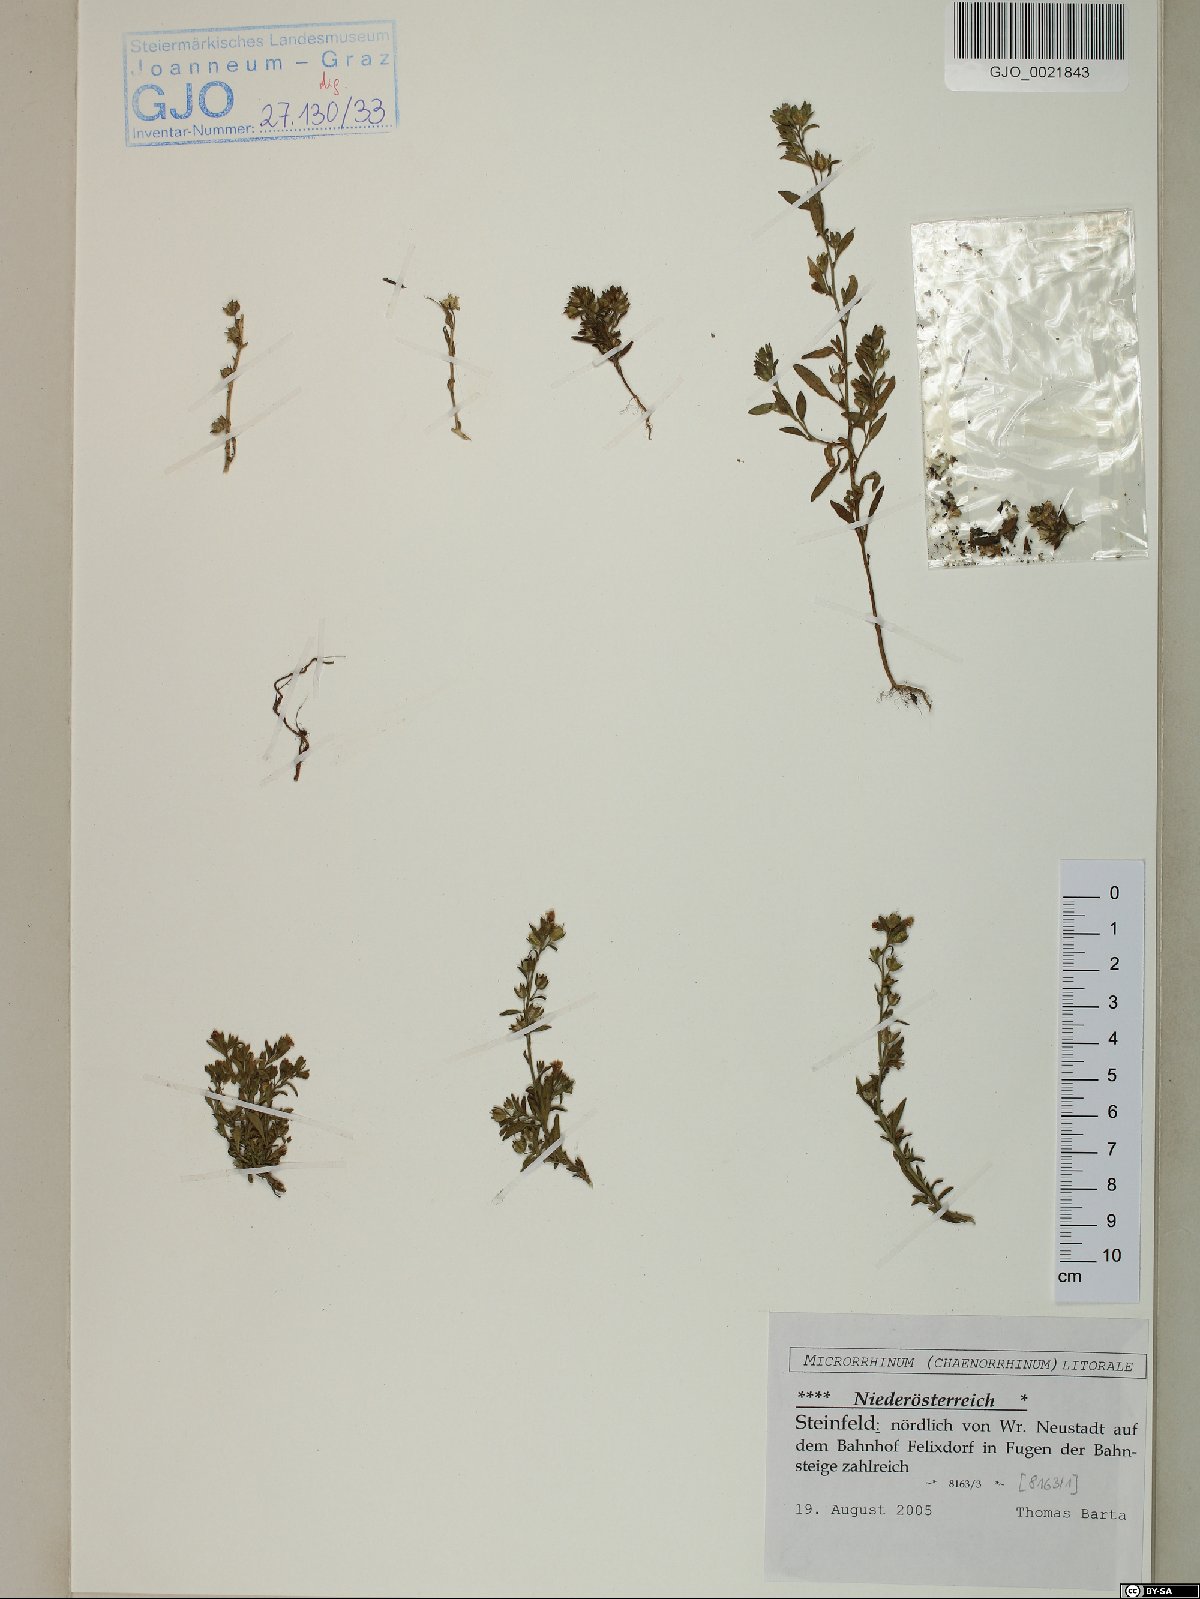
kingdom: Plantae
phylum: Tracheophyta
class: Magnoliopsida
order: Lamiales
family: Plantaginaceae
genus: Chaenorhinum
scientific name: Chaenorhinum litorale
